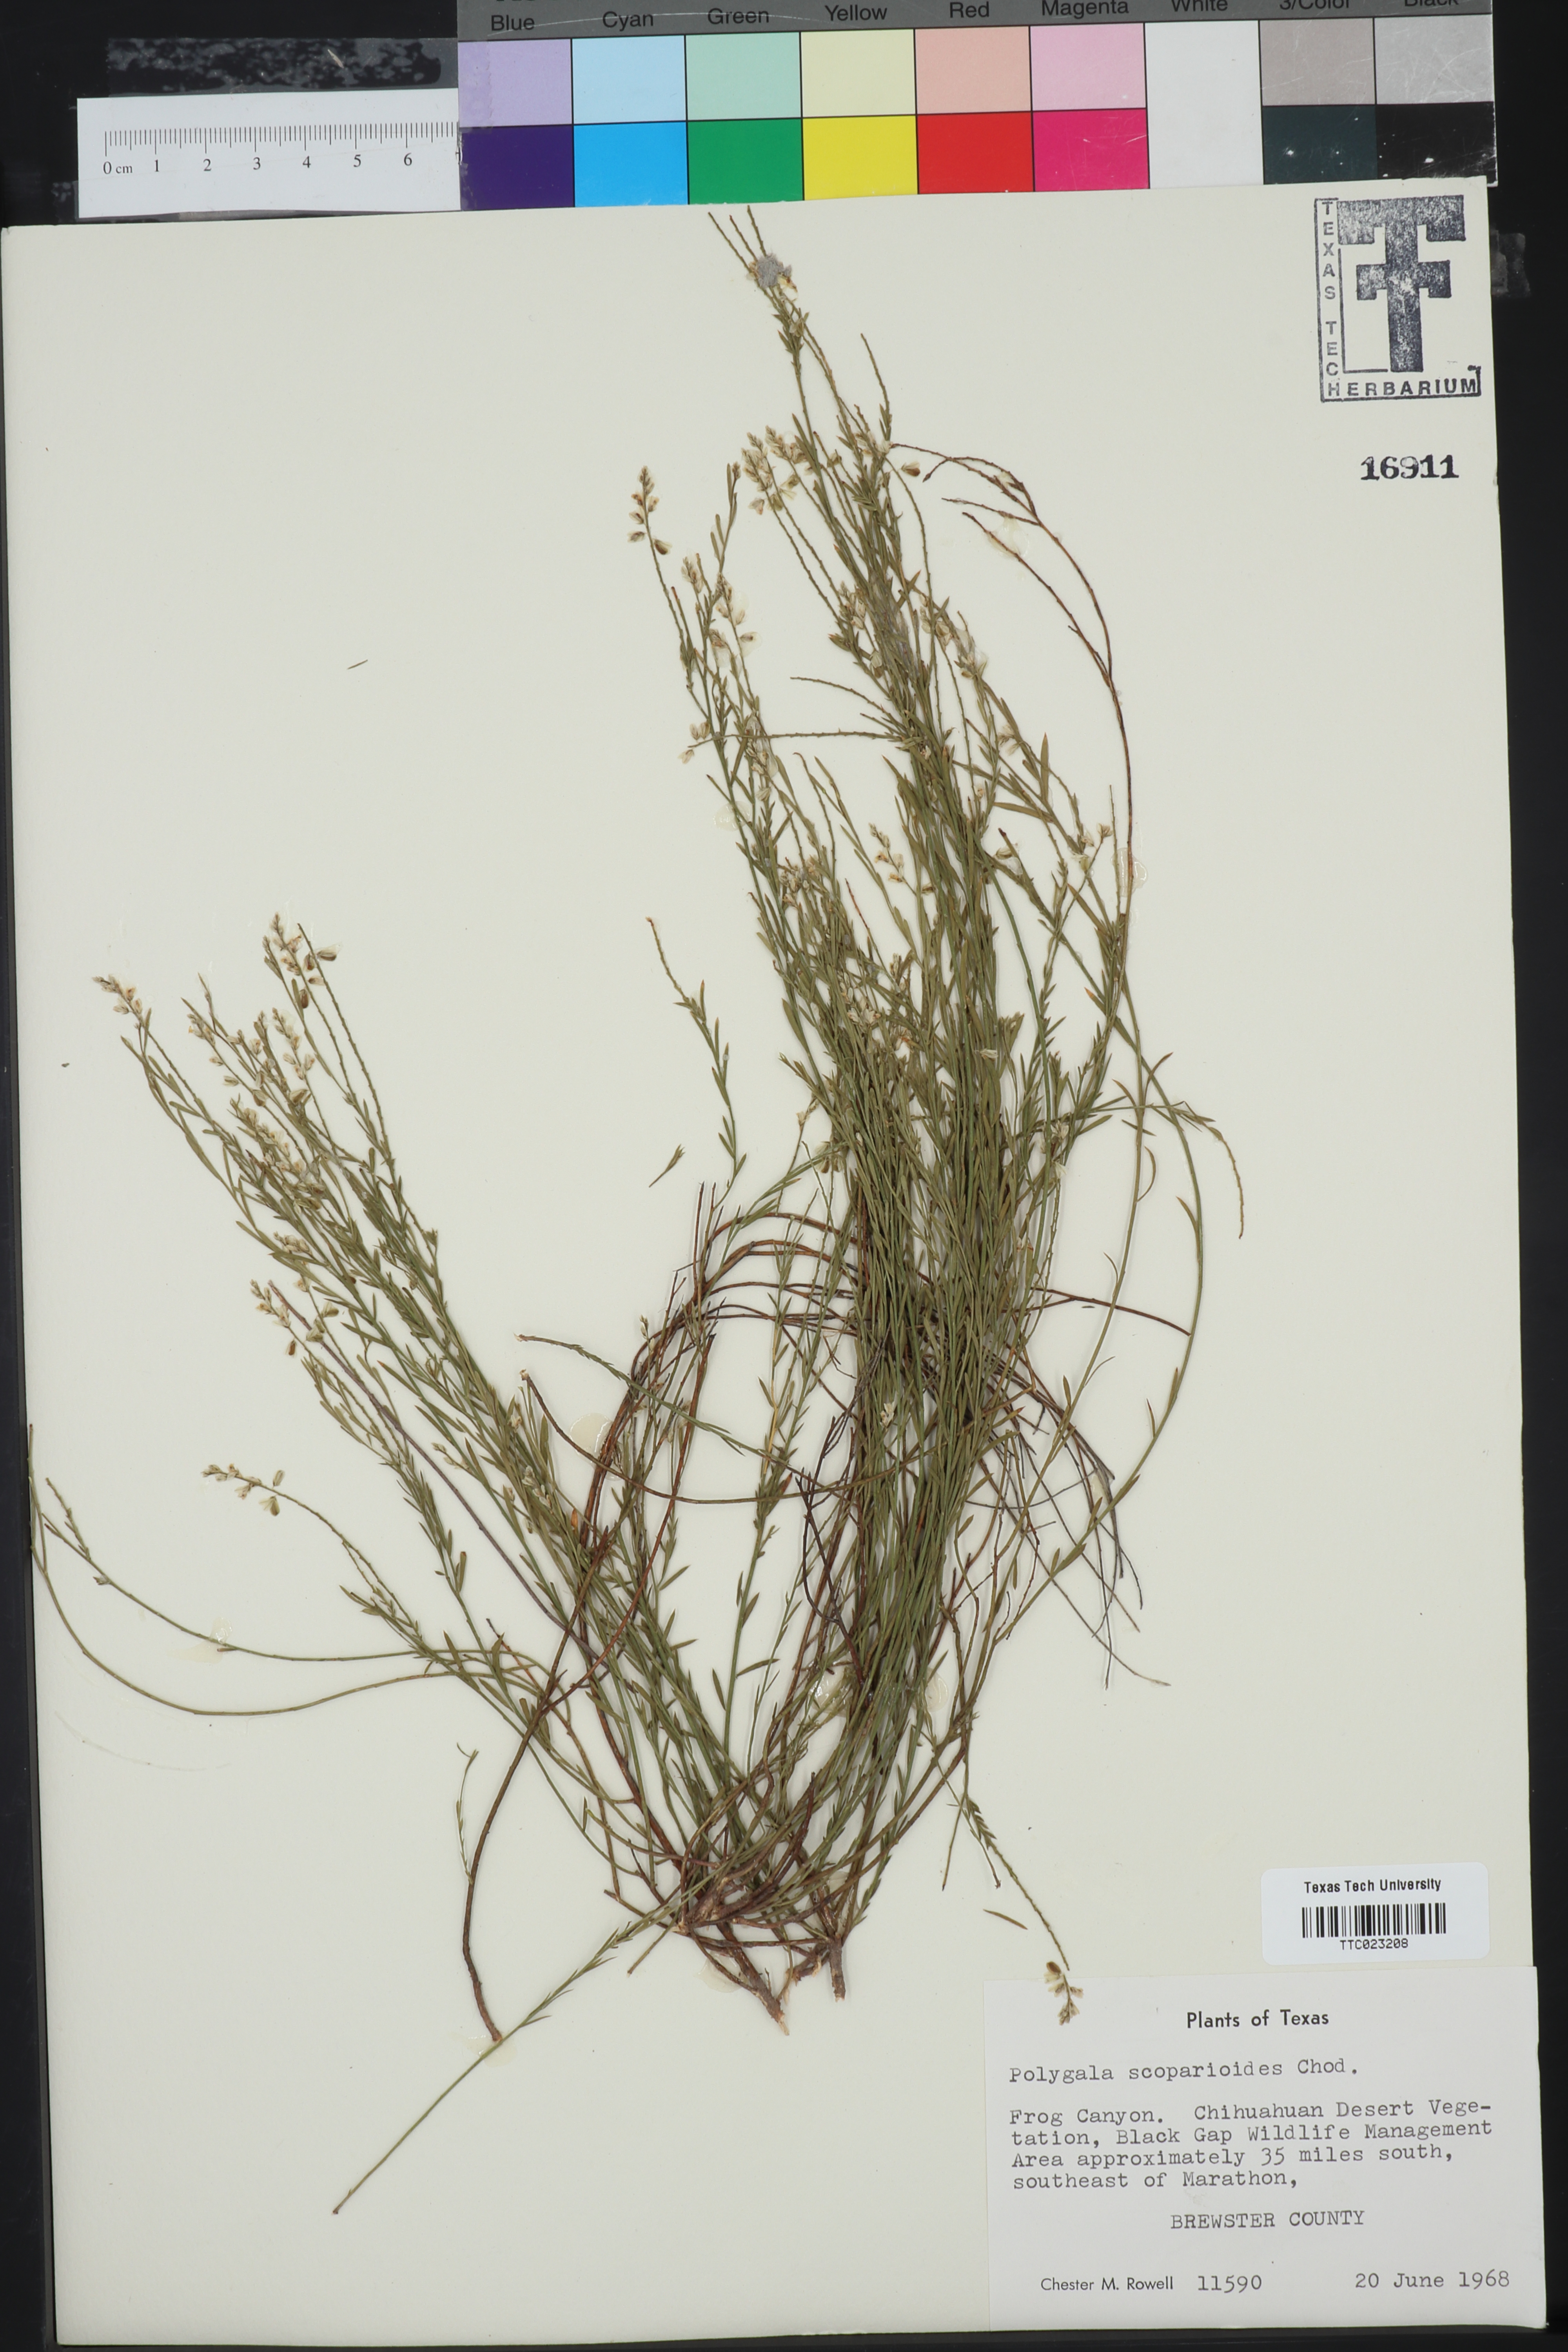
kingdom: Plantae
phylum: Tracheophyta
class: Magnoliopsida
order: Fabales
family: Polygalaceae
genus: Polygala
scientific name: Polygala scoparioides
